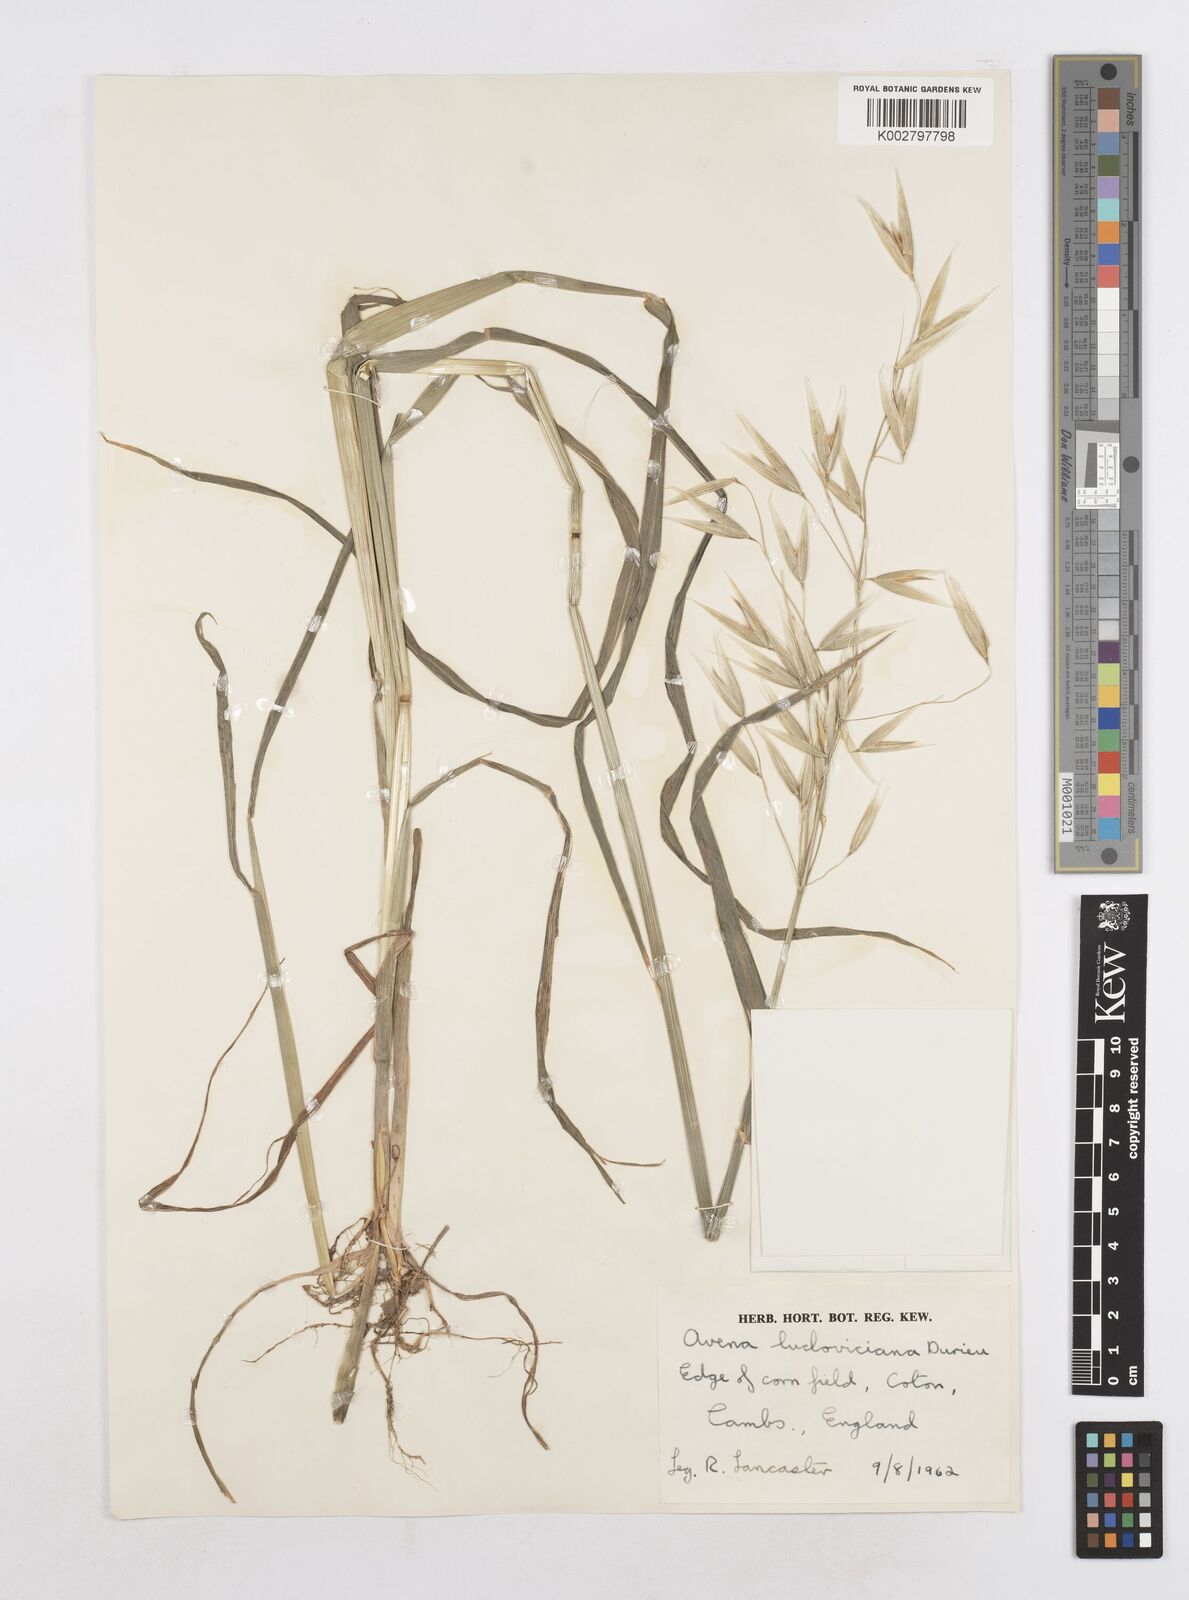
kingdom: Plantae
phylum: Tracheophyta
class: Liliopsida
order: Poales
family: Poaceae
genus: Avena
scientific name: Avena sterilis
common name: Animated oat
